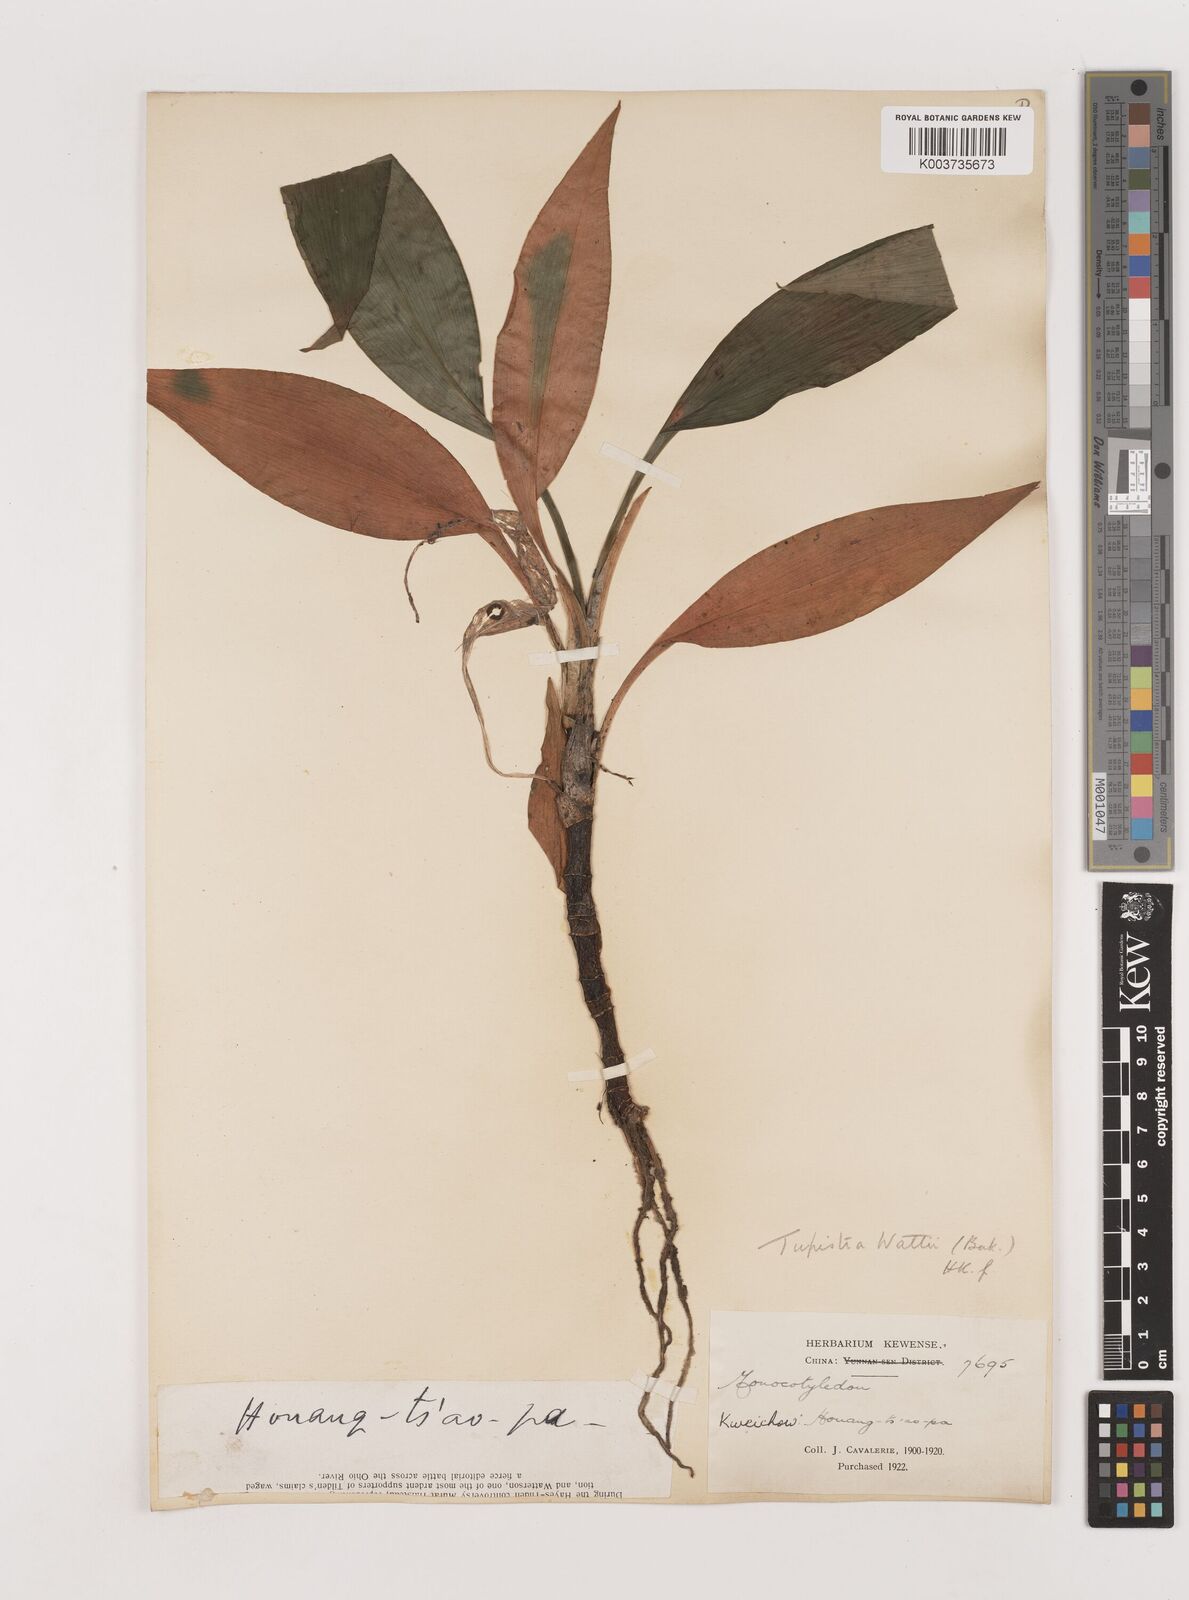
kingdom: Plantae
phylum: Tracheophyta
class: Liliopsida
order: Asparagales
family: Asparagaceae
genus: Rohdea
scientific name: Rohdea wattii
